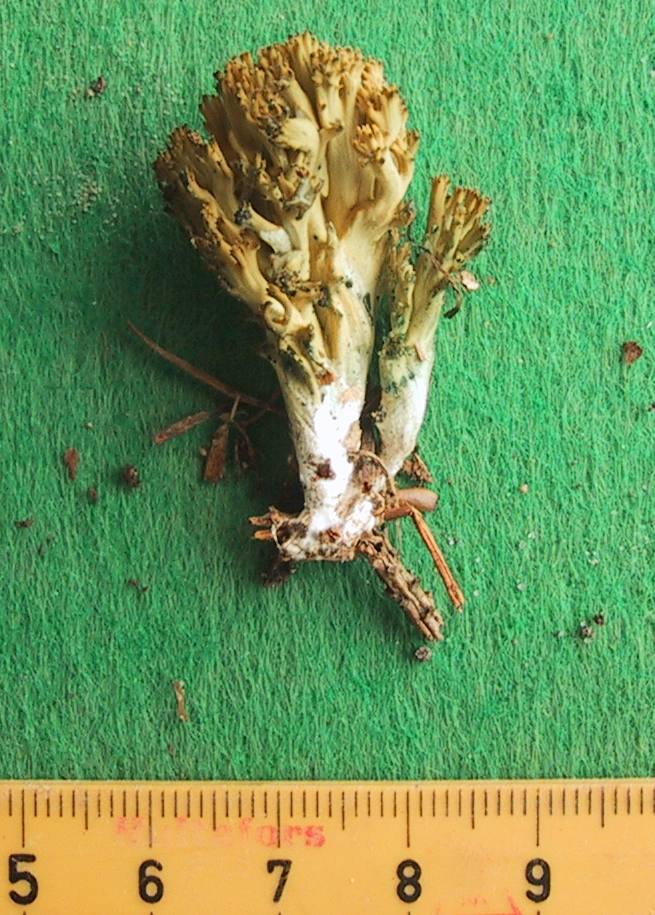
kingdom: Fungi
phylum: Basidiomycota
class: Agaricomycetes
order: Gomphales
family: Gomphaceae
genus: Phaeoclavulina
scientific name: Phaeoclavulina abietina
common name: gulgrøn koralsvamp
